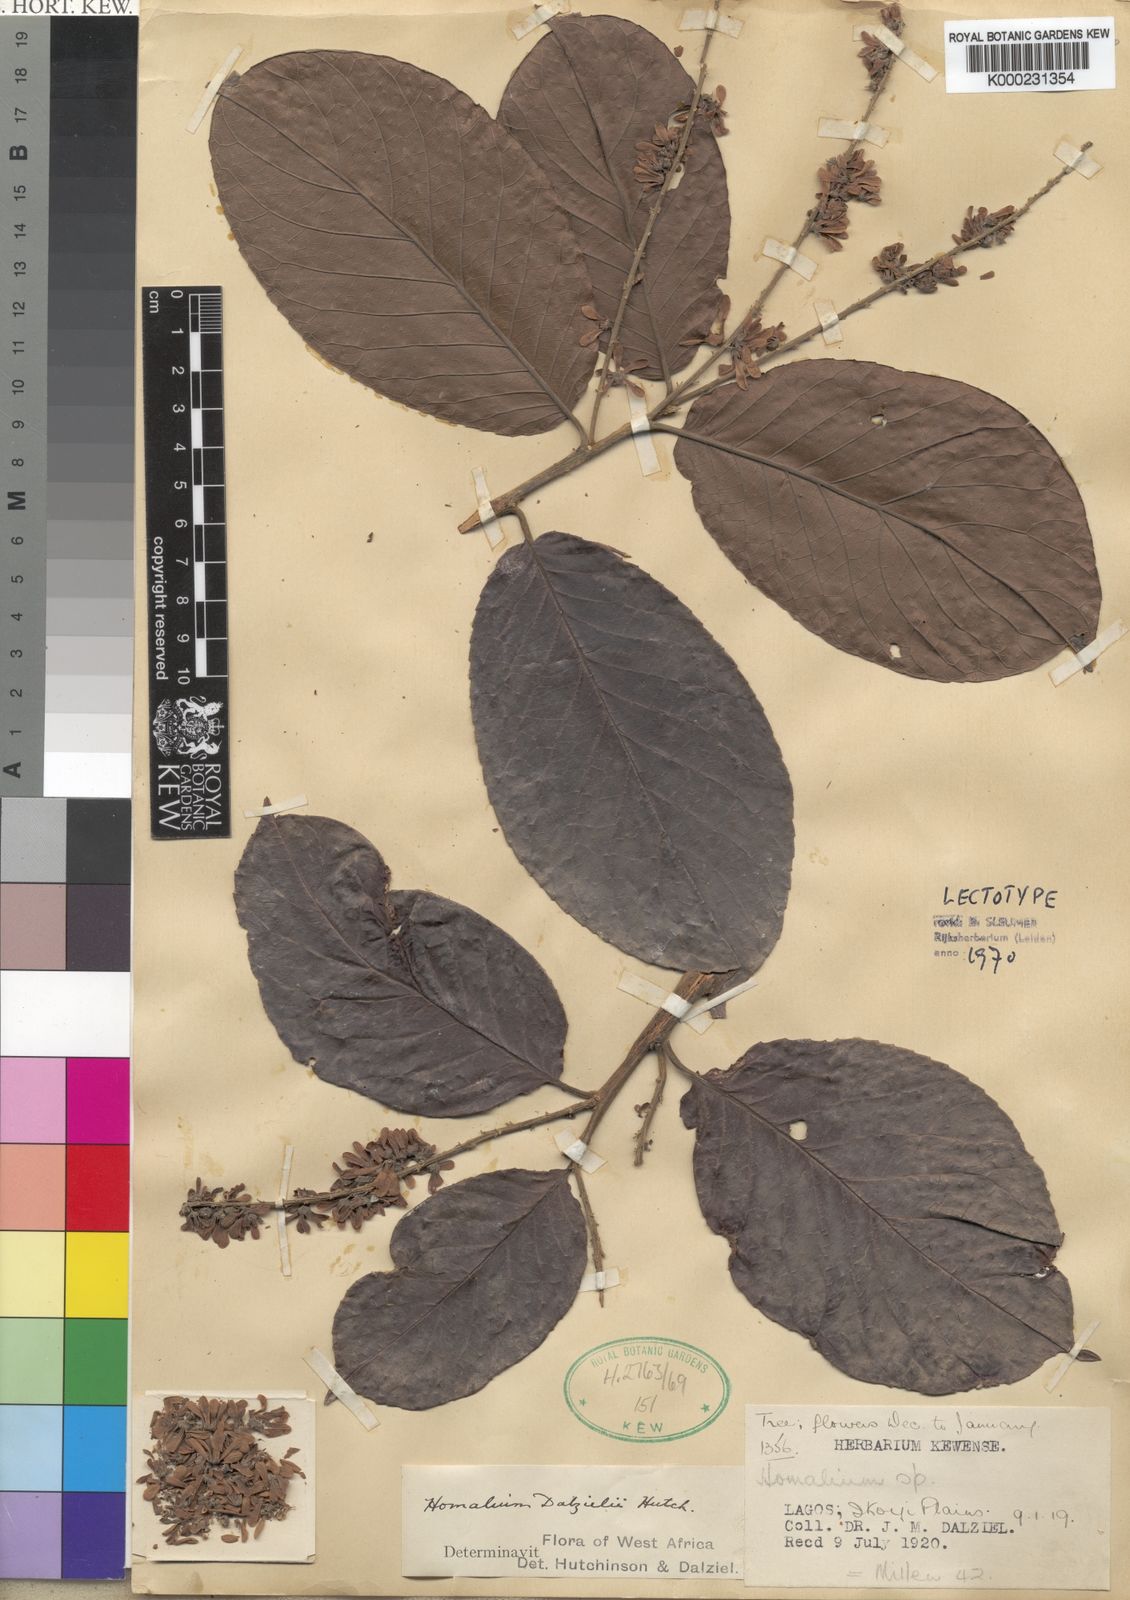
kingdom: Plantae
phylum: Tracheophyta
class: Magnoliopsida
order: Malpighiales
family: Salicaceae
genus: Homalium
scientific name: Homalium dalzielii
